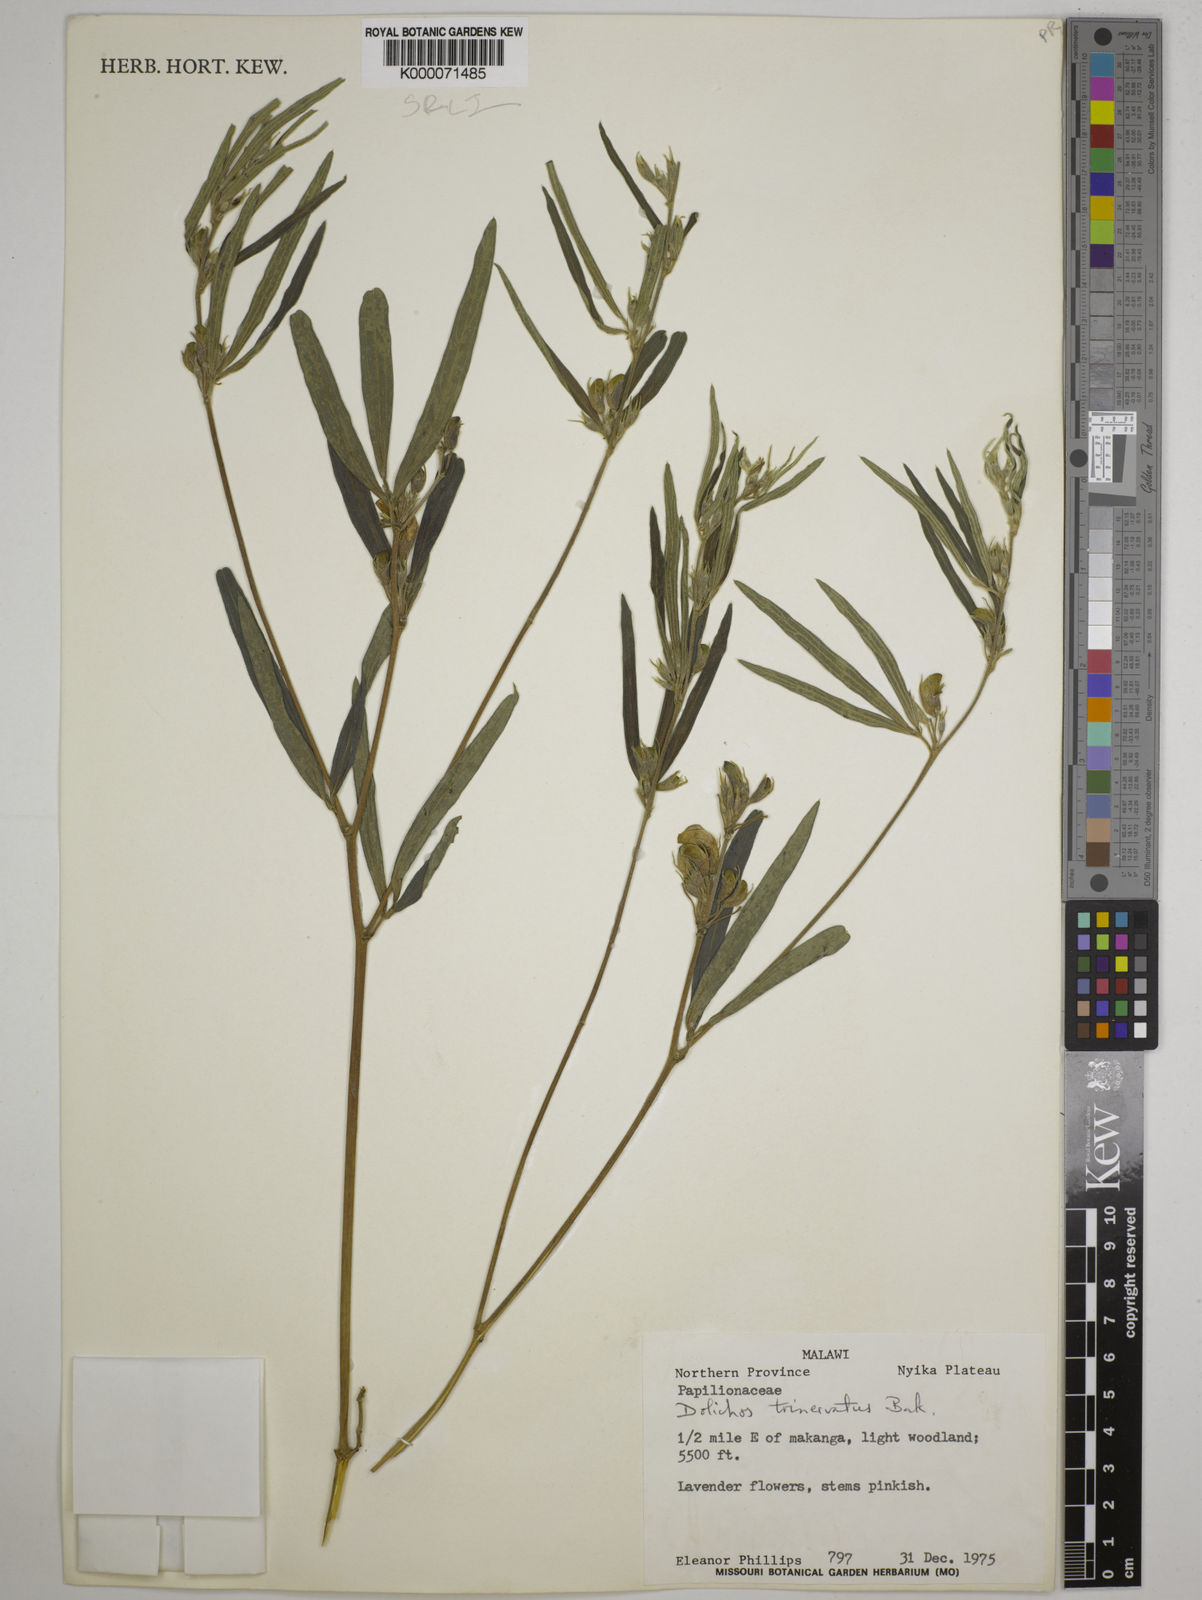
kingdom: Plantae
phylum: Tracheophyta
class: Magnoliopsida
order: Fabales
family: Fabaceae
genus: Dolichos
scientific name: Dolichos trinervatus
